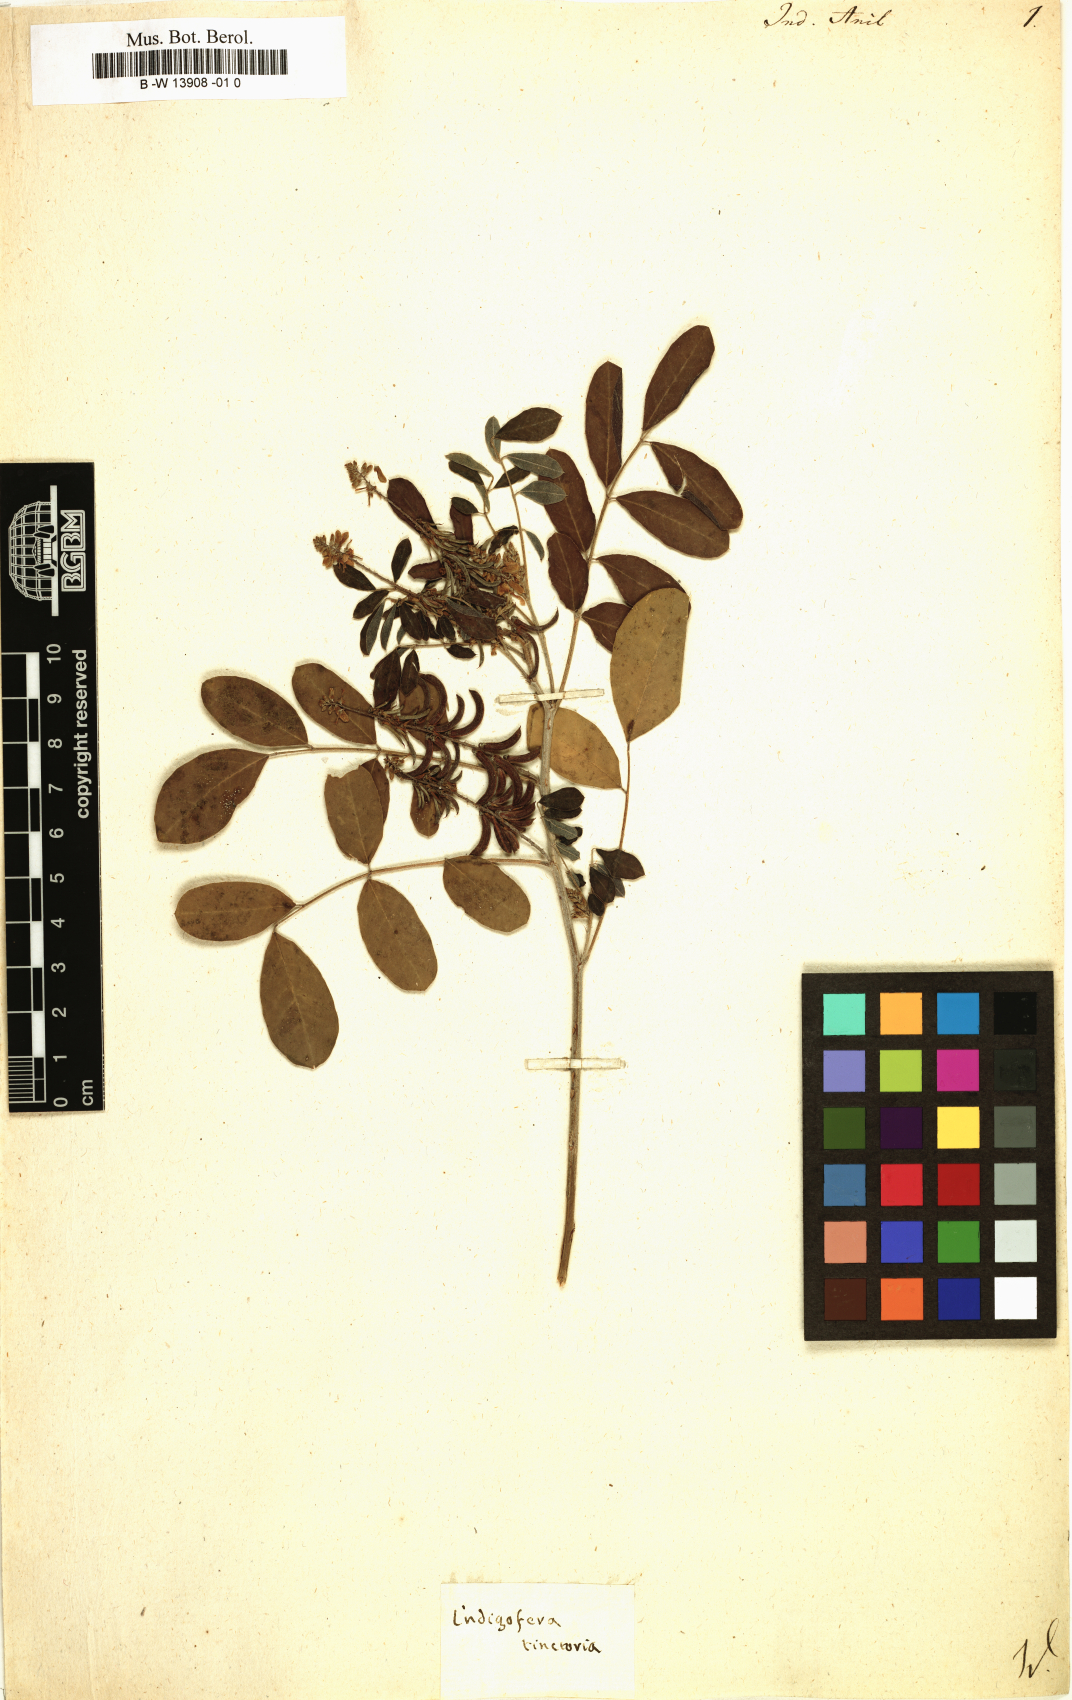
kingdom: Plantae
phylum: Tracheophyta
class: Magnoliopsida
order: Fabales
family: Fabaceae
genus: Indigofera
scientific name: Indigofera suffruticosa
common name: Anil de pasto
